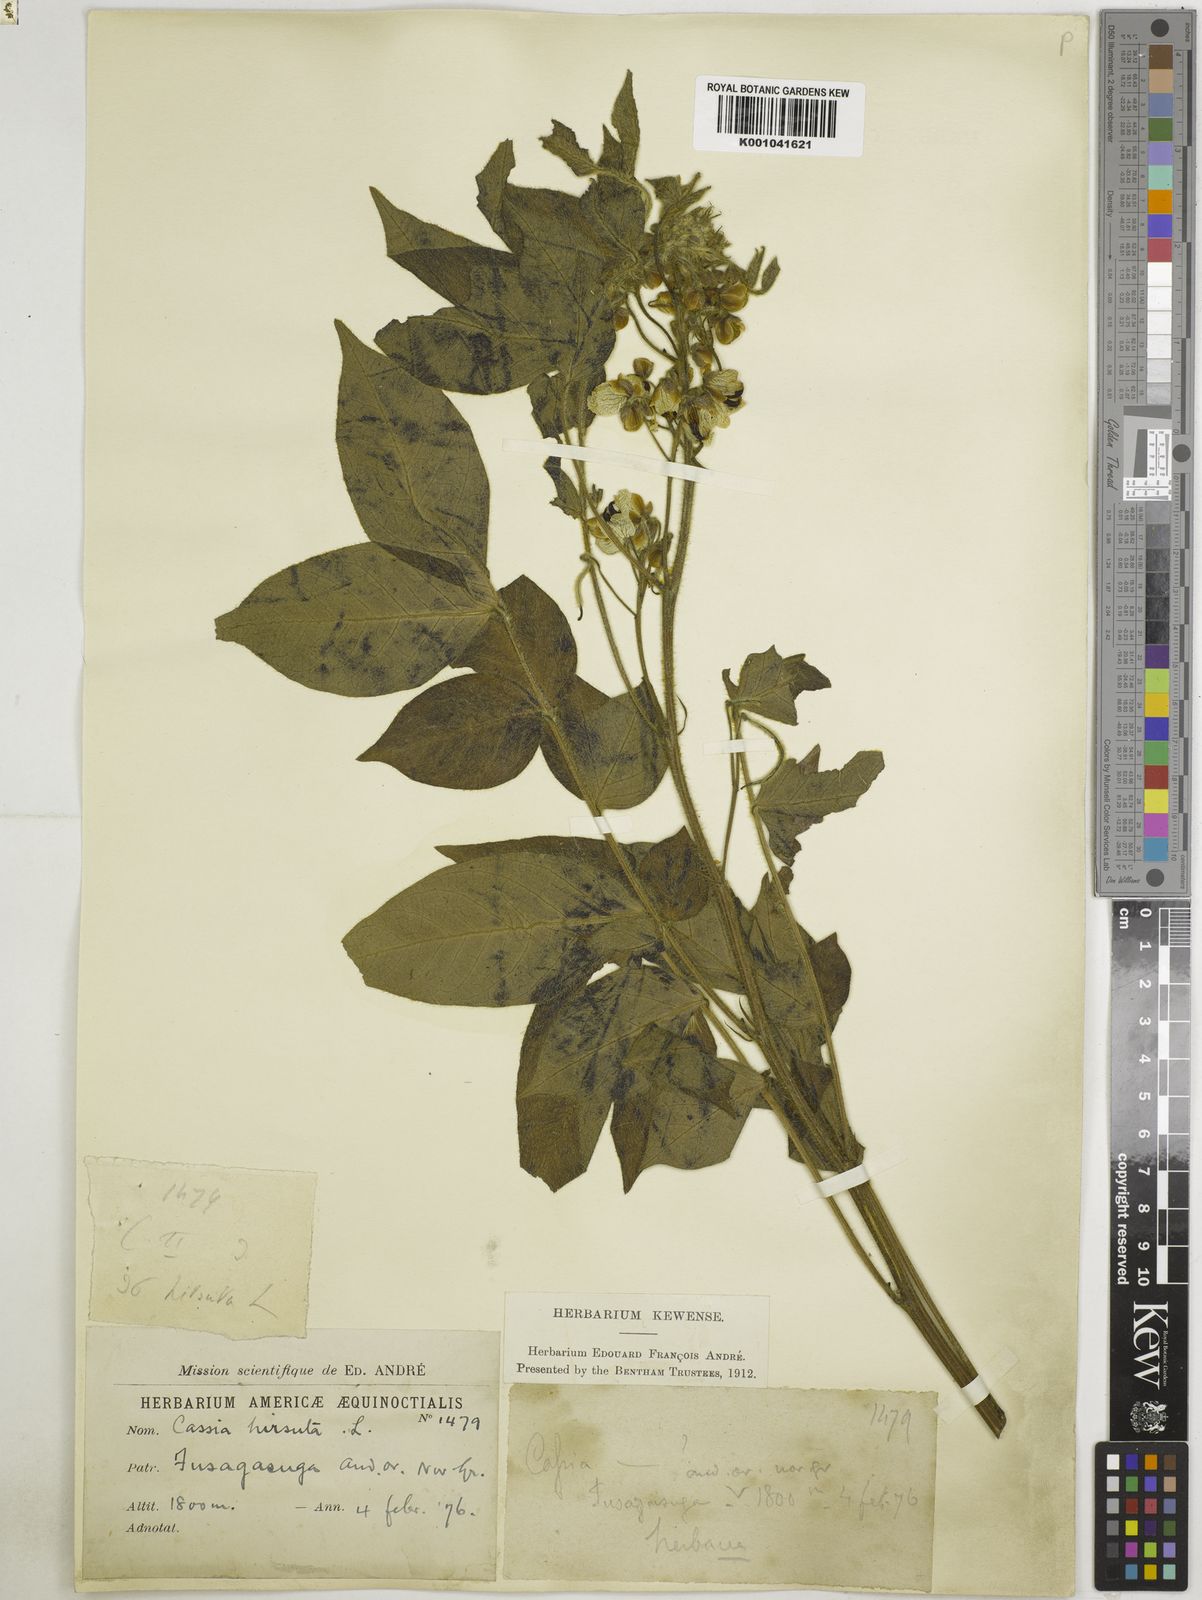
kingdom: Plantae
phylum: Tracheophyta
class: Magnoliopsida
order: Fabales
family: Fabaceae
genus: Senna
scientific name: Senna hirsuta
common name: Woolly senna
